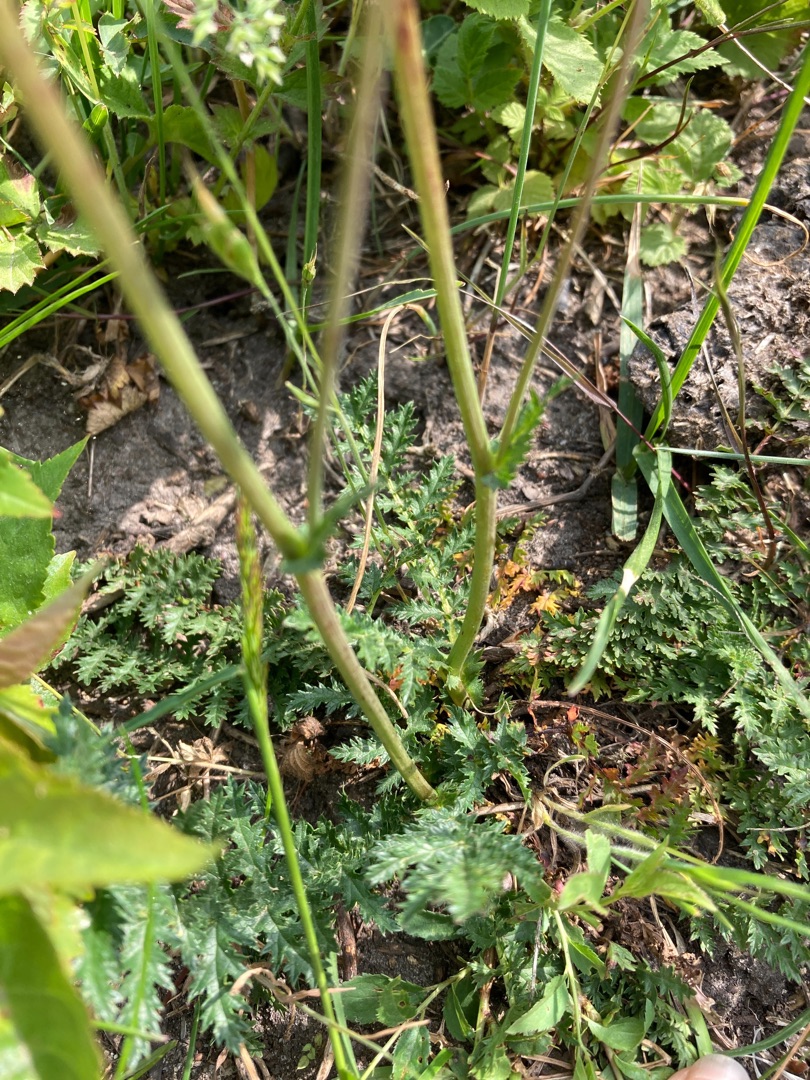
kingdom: Plantae
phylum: Tracheophyta
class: Magnoliopsida
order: Rosales
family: Rosaceae
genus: Filipendula
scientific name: Filipendula vulgaris
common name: Knoldet mjødurt
